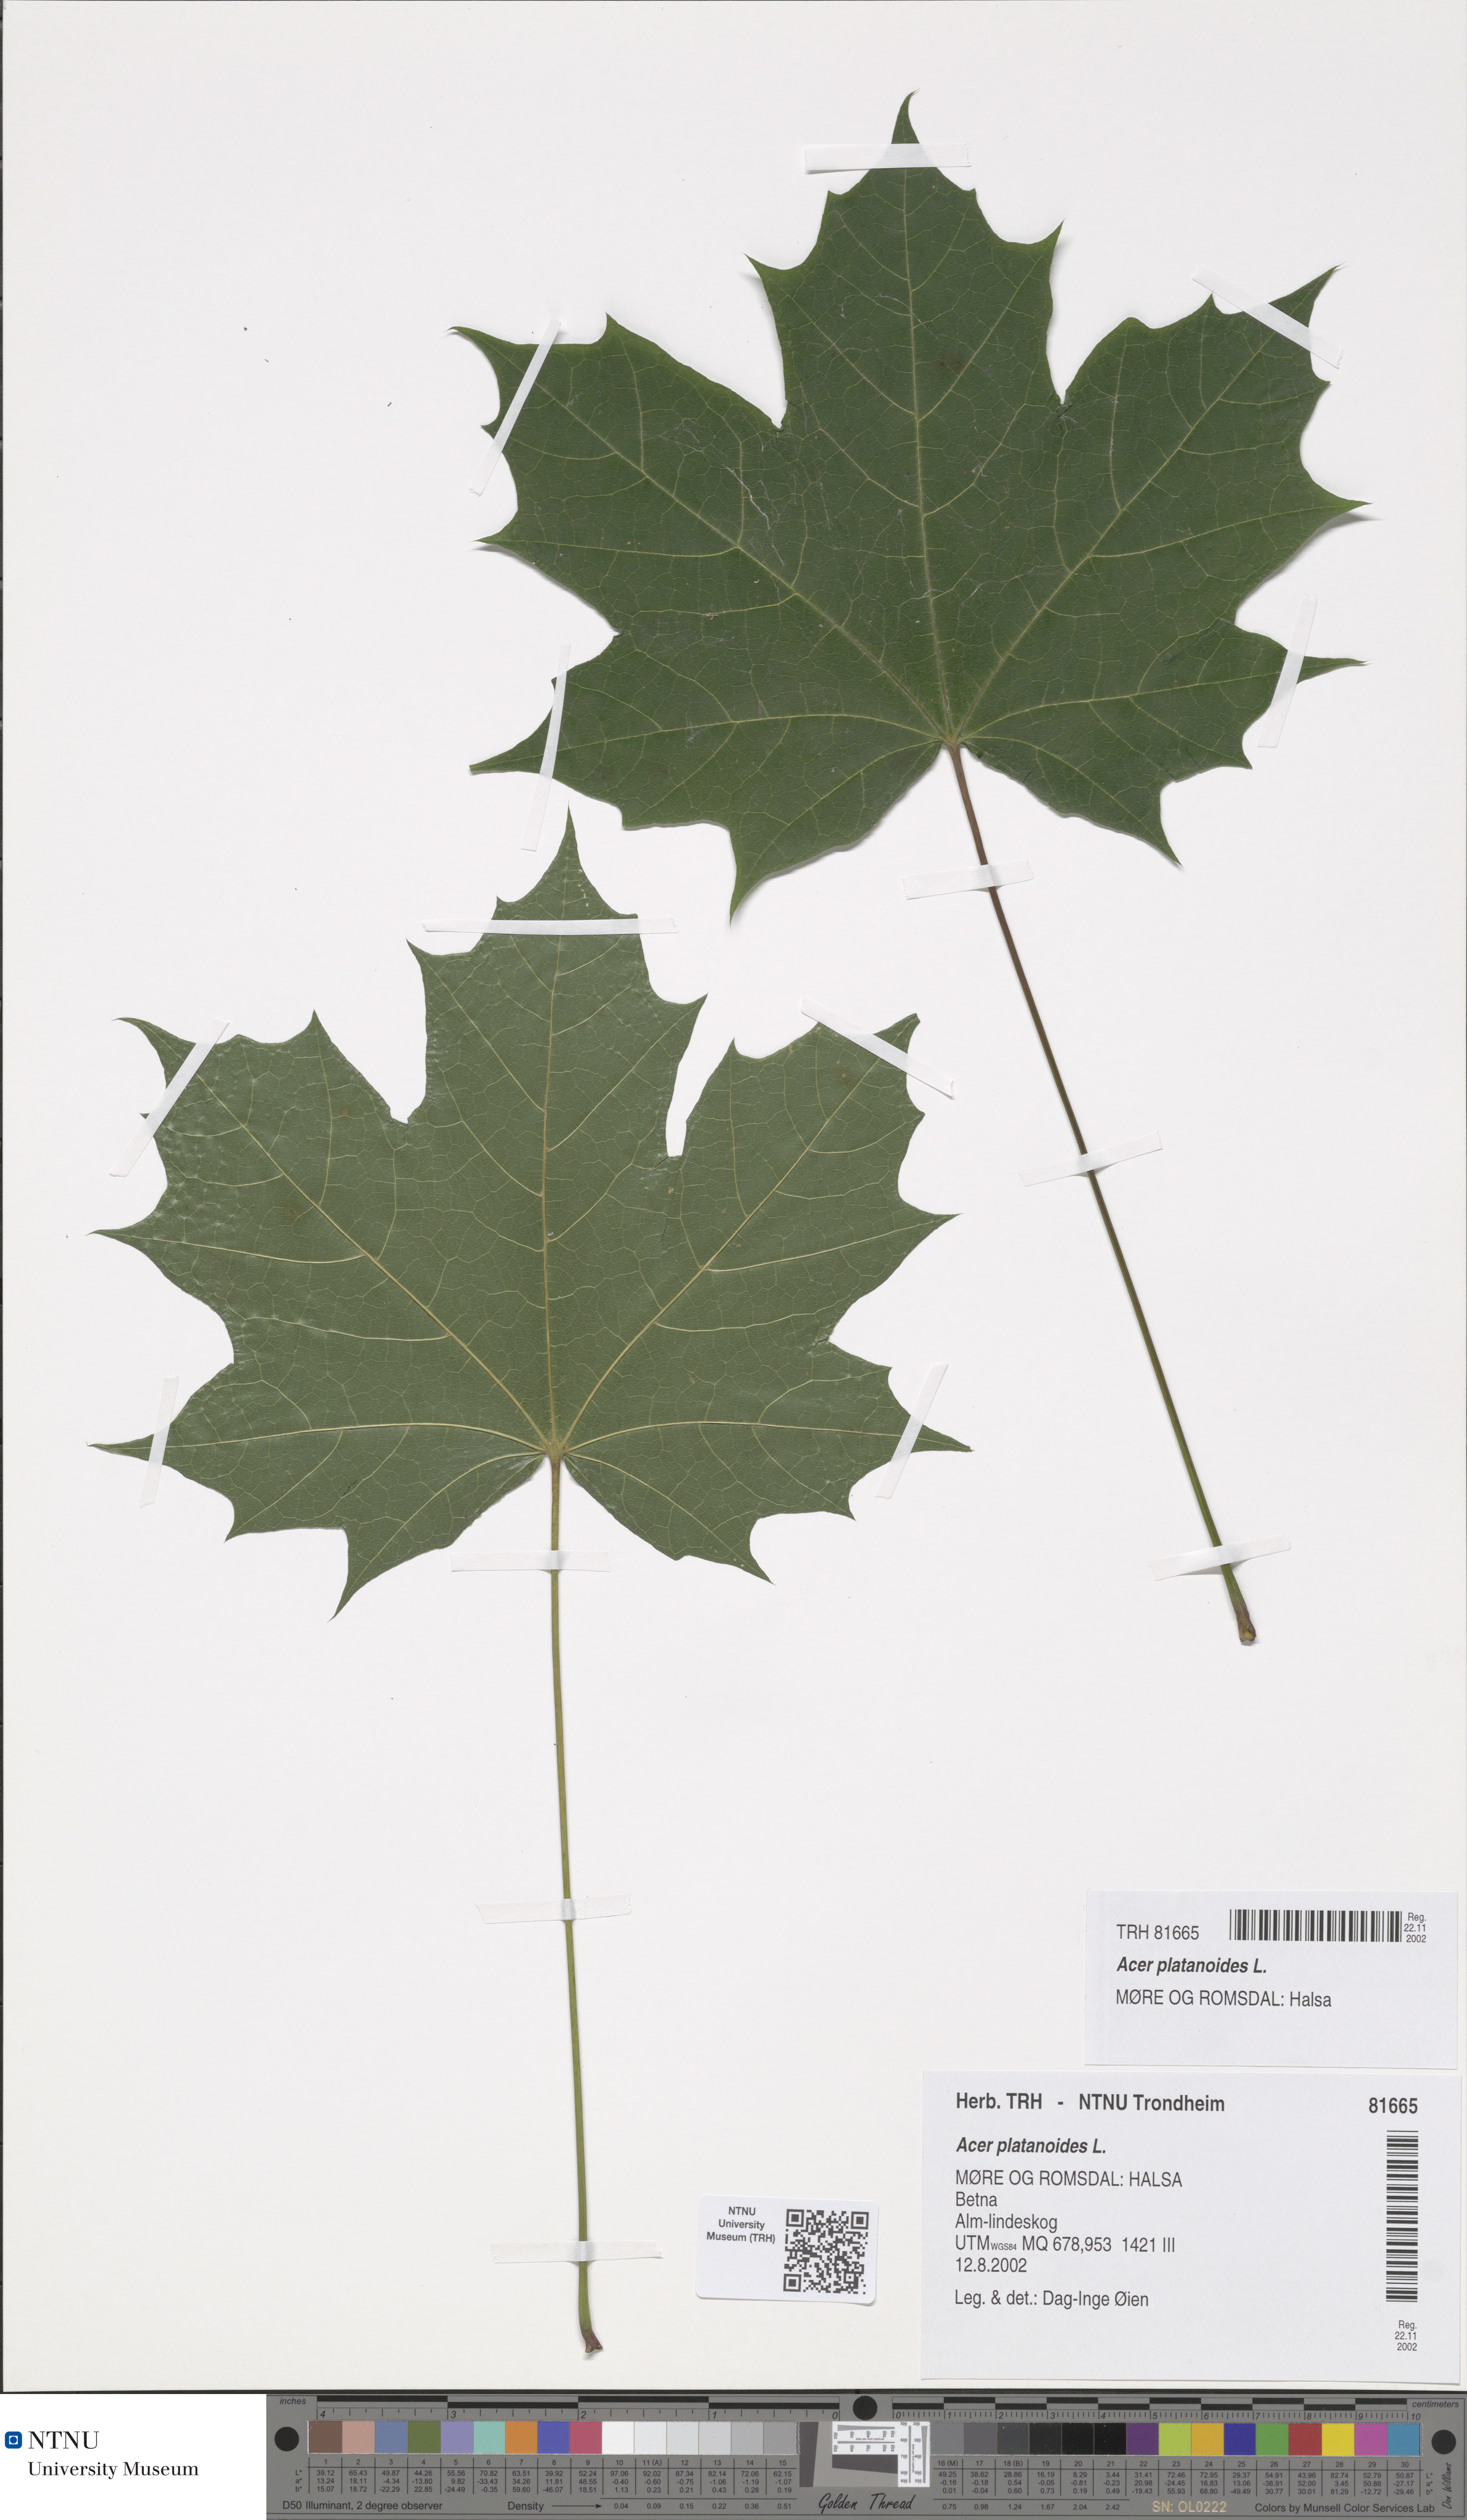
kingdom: Plantae
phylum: Tracheophyta
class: Magnoliopsida
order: Sapindales
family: Sapindaceae
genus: Acer
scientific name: Acer platanoides
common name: Norway maple
